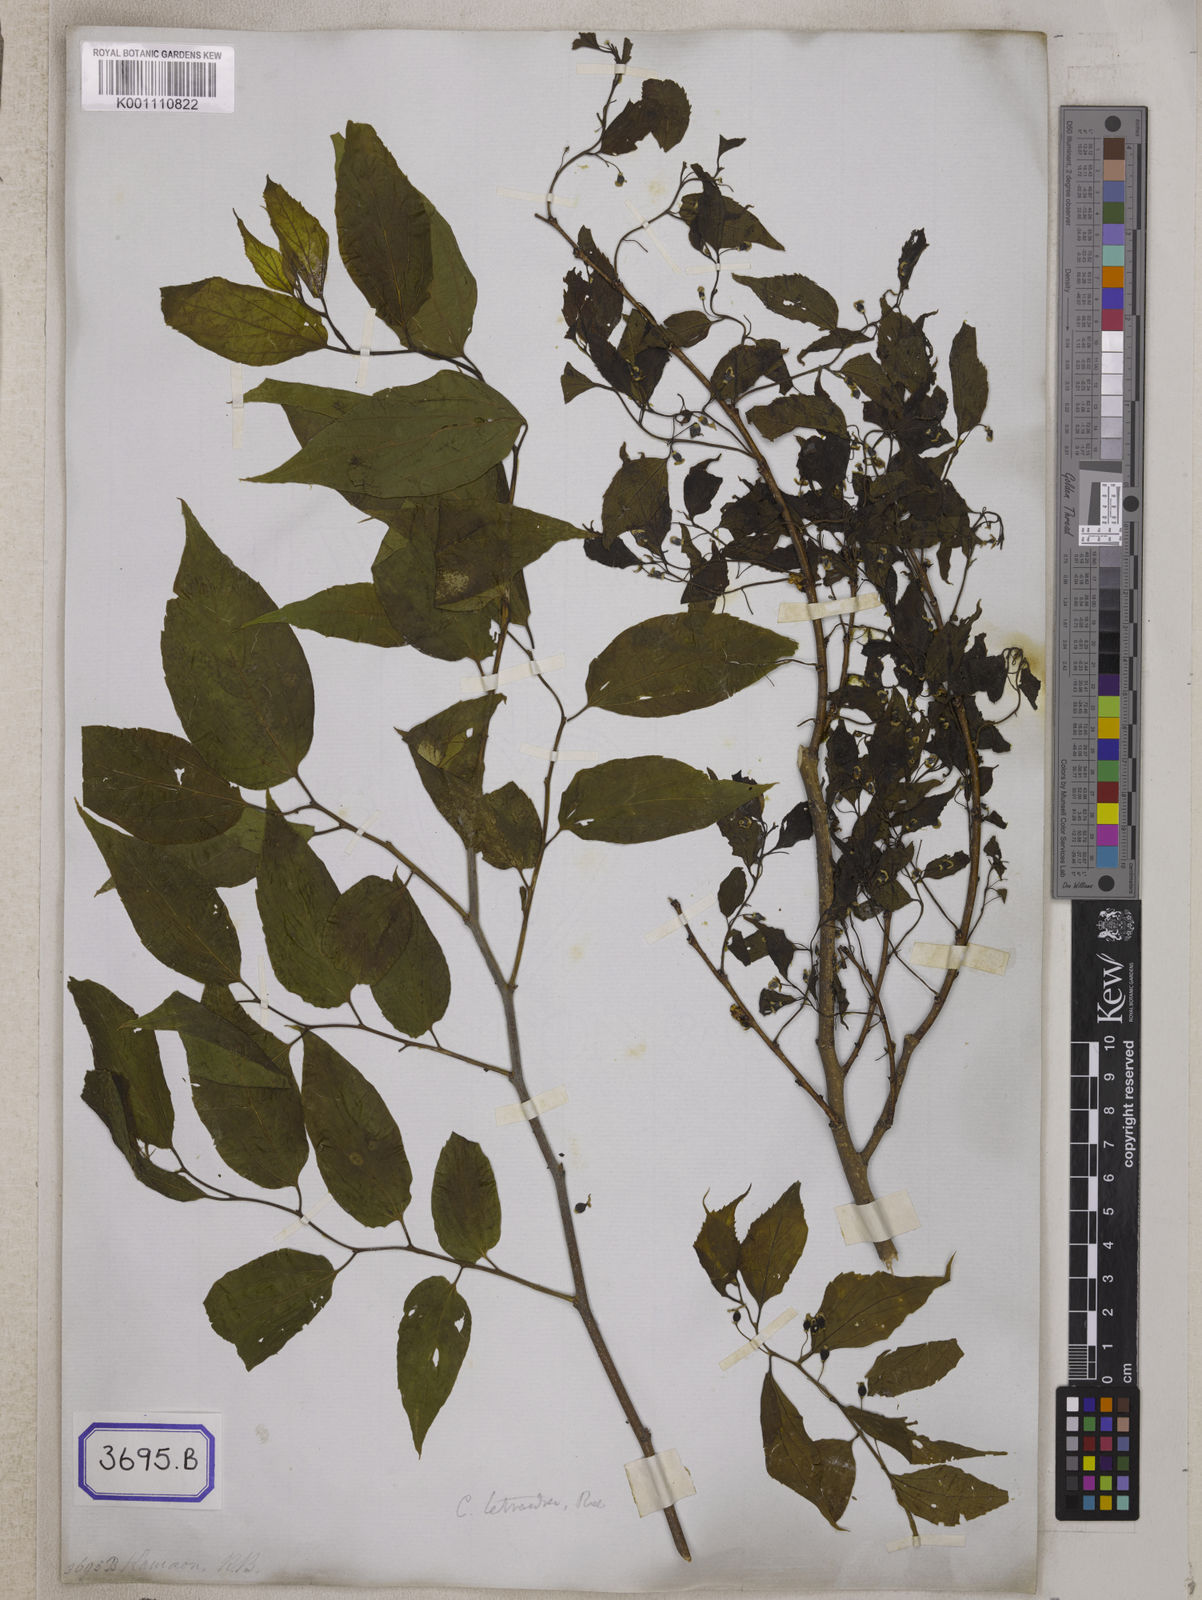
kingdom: Plantae
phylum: Tracheophyta
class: Magnoliopsida
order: Rosales
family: Cannabaceae
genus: Celtis
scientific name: Celtis
